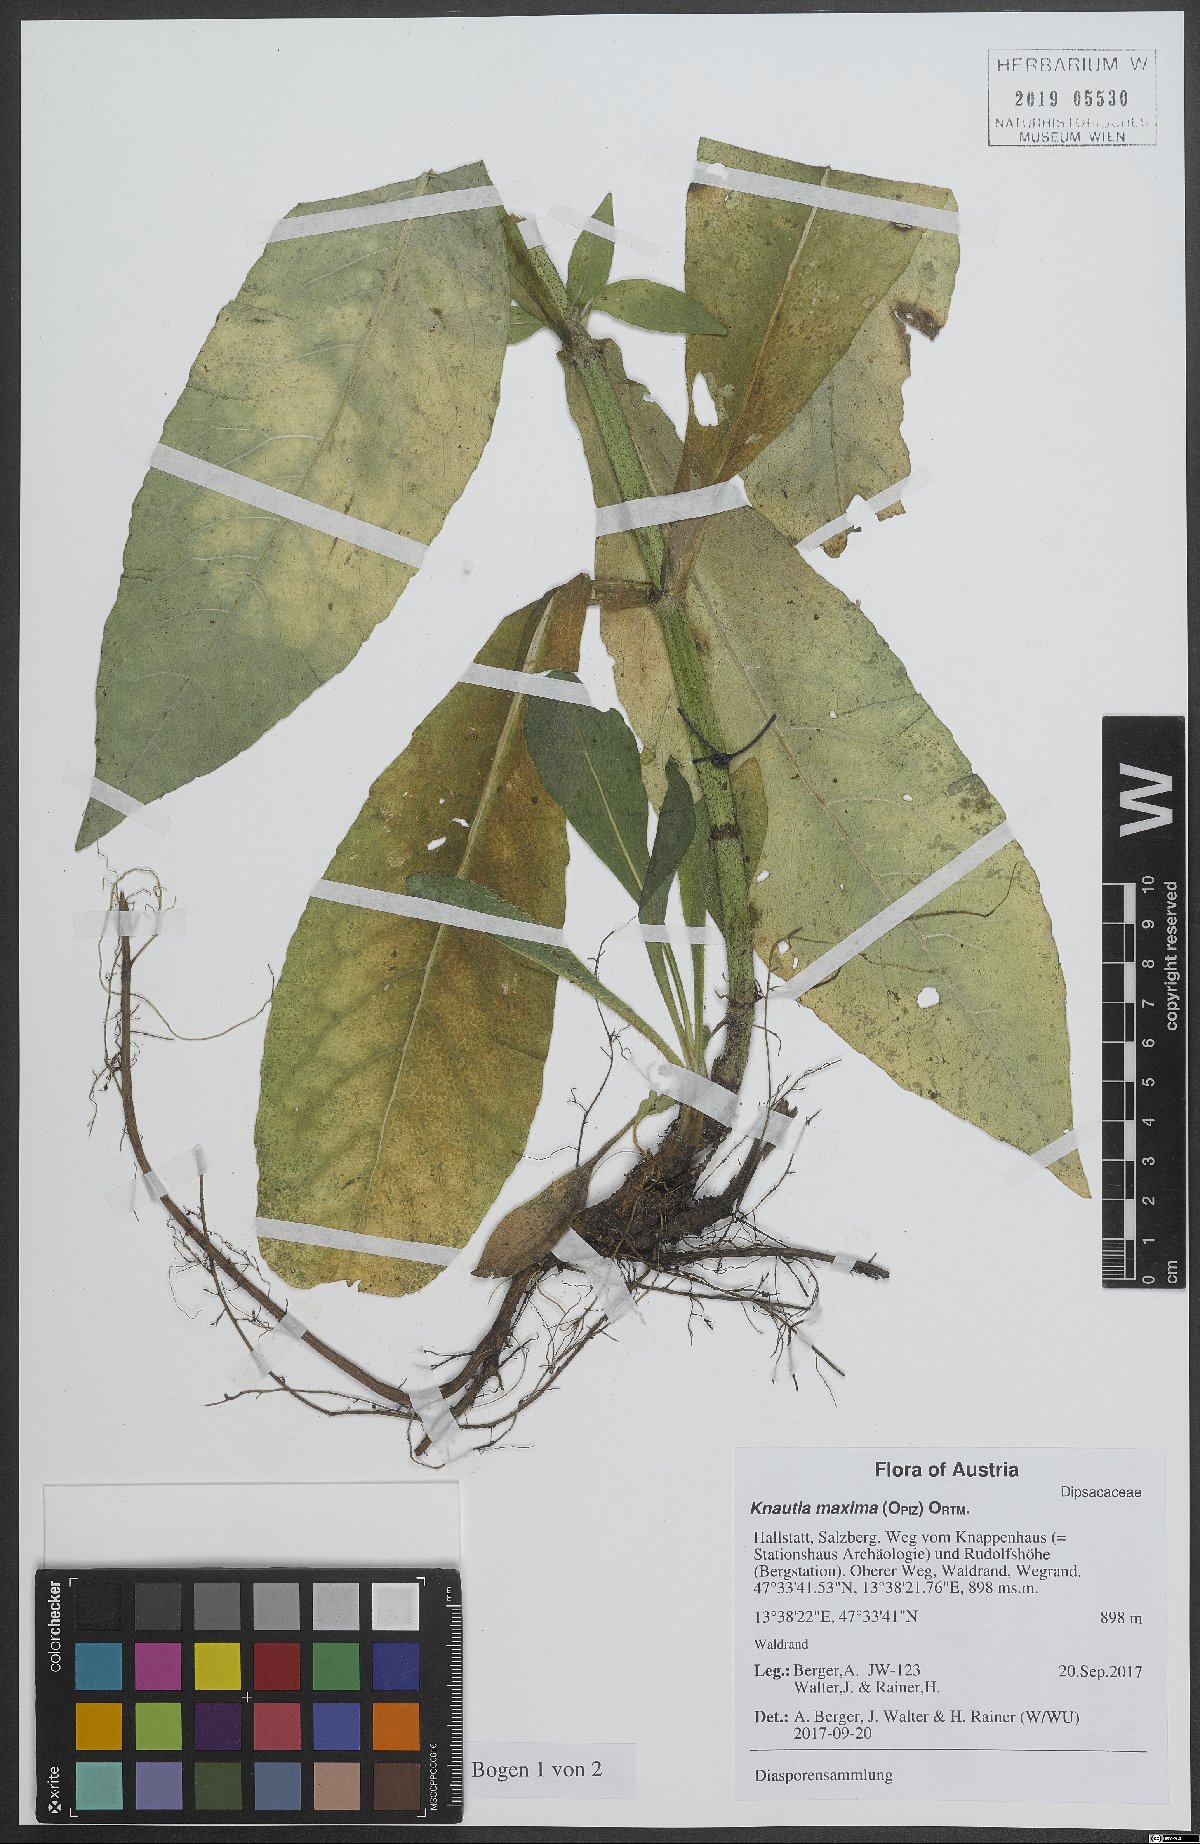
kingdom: Plantae
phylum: Tracheophyta
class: Magnoliopsida
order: Dipsacales
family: Caprifoliaceae
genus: Knautia
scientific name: Knautia dipsacifolia
